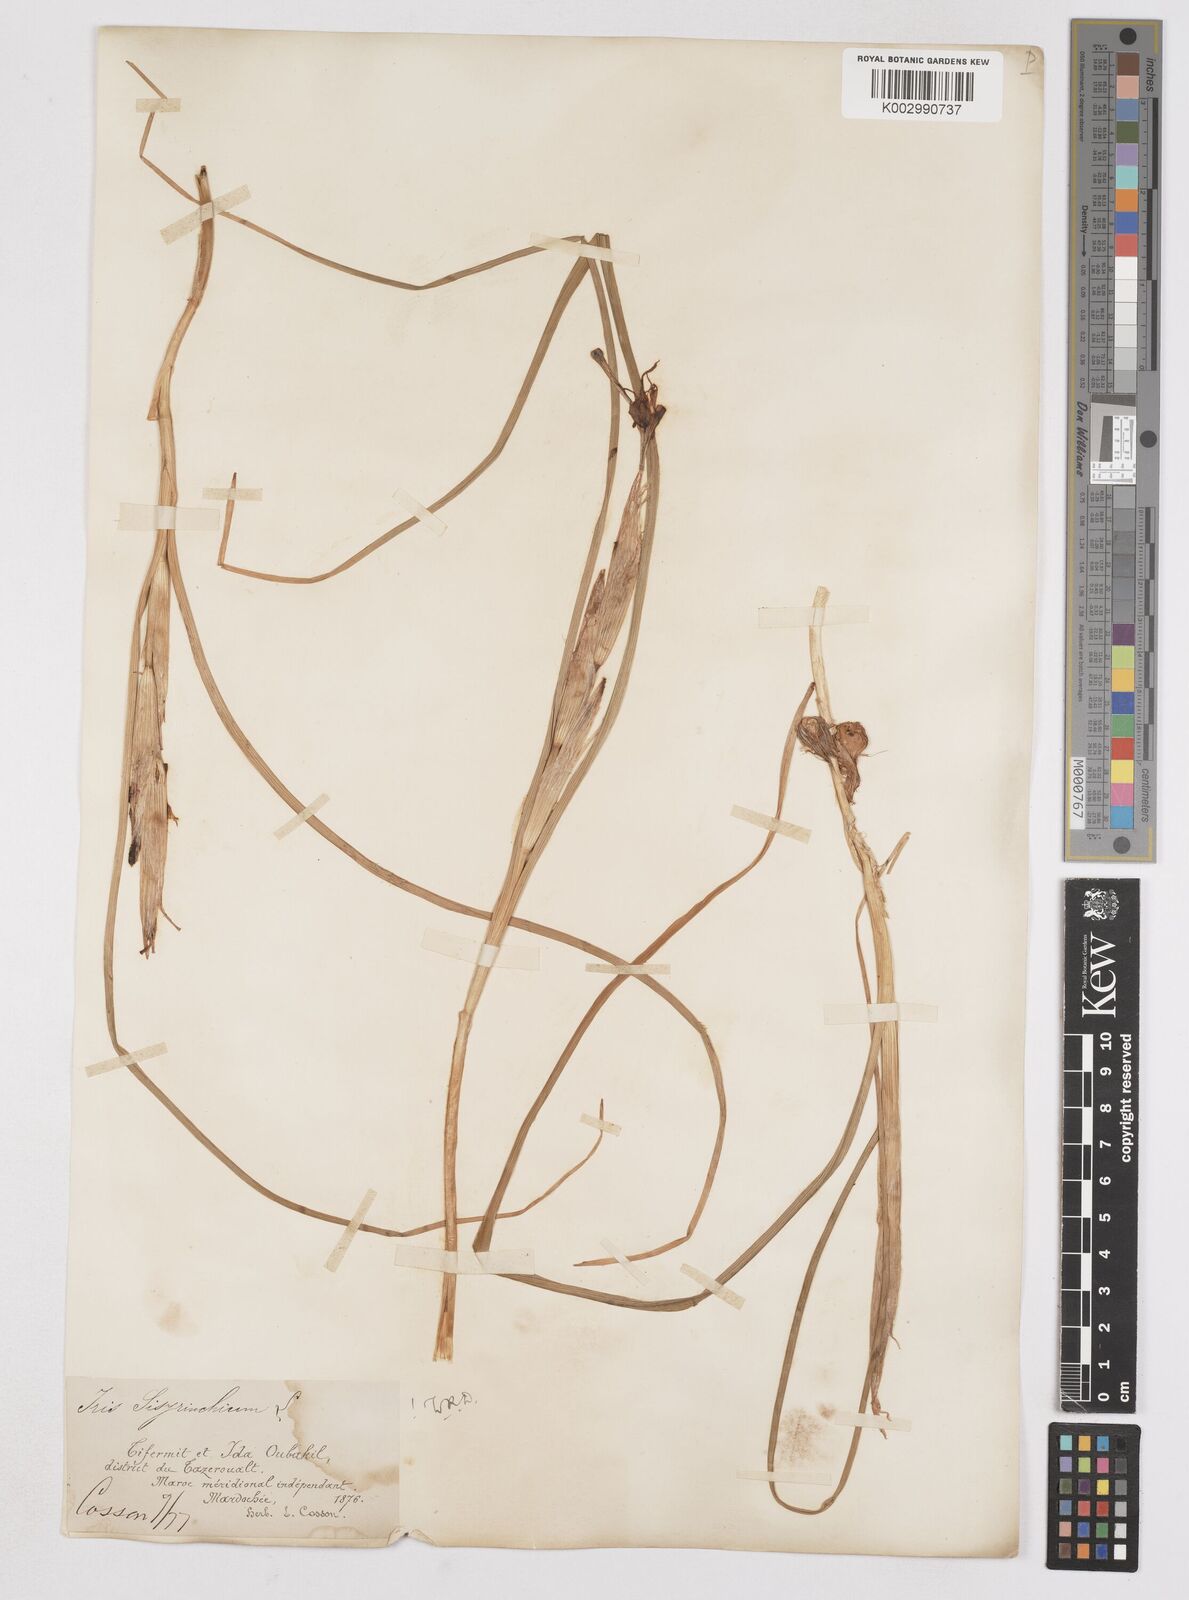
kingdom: Plantae
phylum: Tracheophyta
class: Liliopsida
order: Asparagales
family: Iridaceae
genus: Moraea
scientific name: Moraea sisyrinchium
